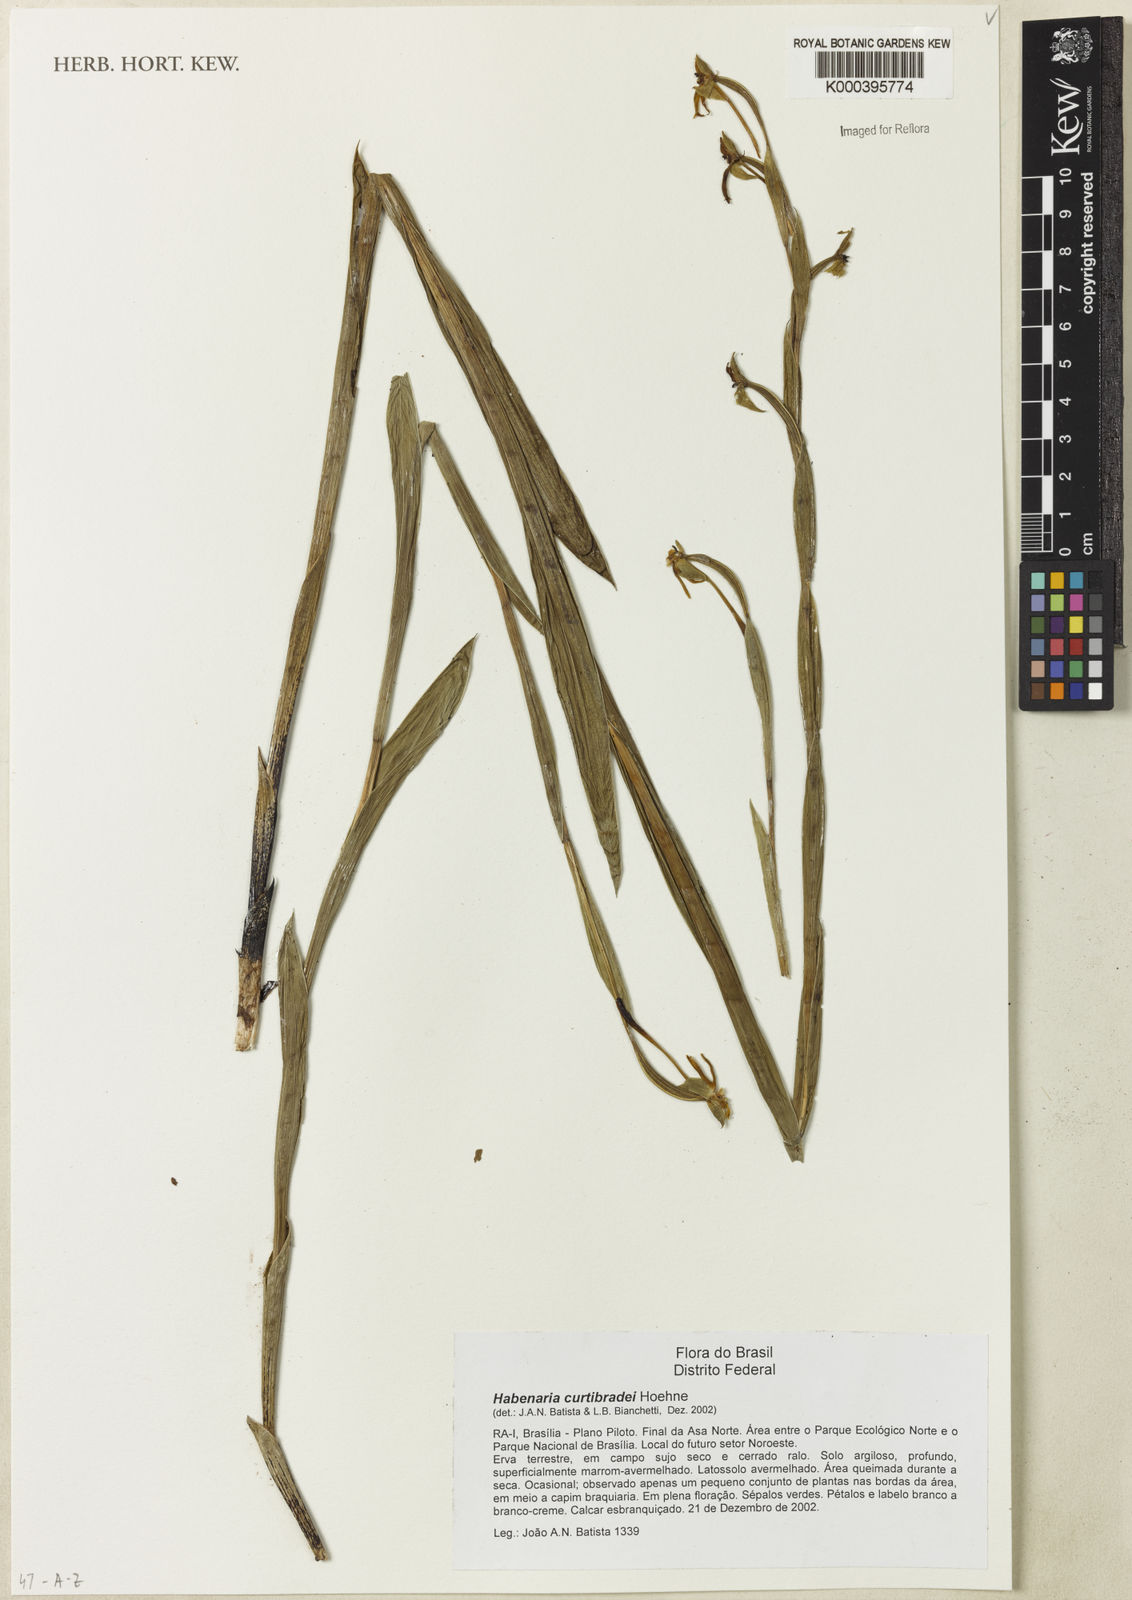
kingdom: Plantae
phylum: Tracheophyta
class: Liliopsida
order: Asparagales
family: Orchidaceae
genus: Habenaria
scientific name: Habenaria trifida
